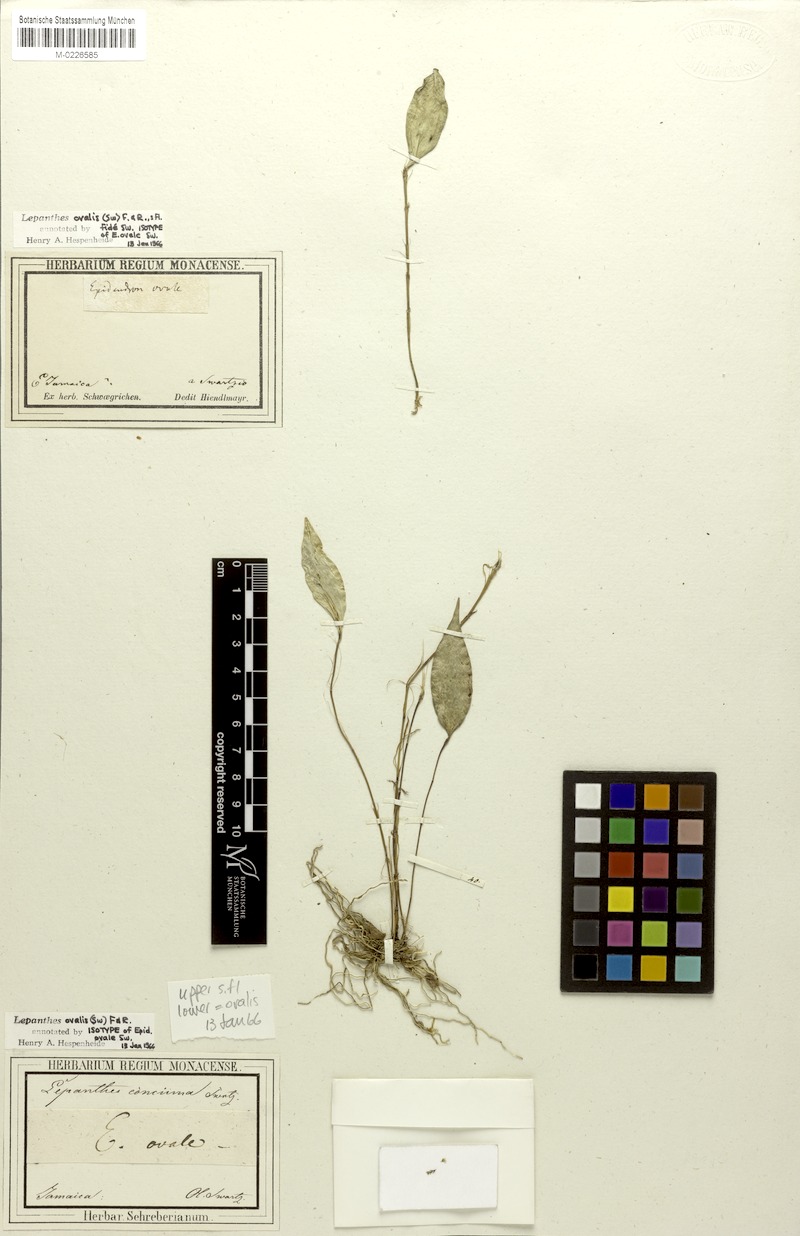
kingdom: Plantae
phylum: Tracheophyta
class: Liliopsida
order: Asparagales
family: Orchidaceae
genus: Lepanthes
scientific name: Lepanthes ovalis
